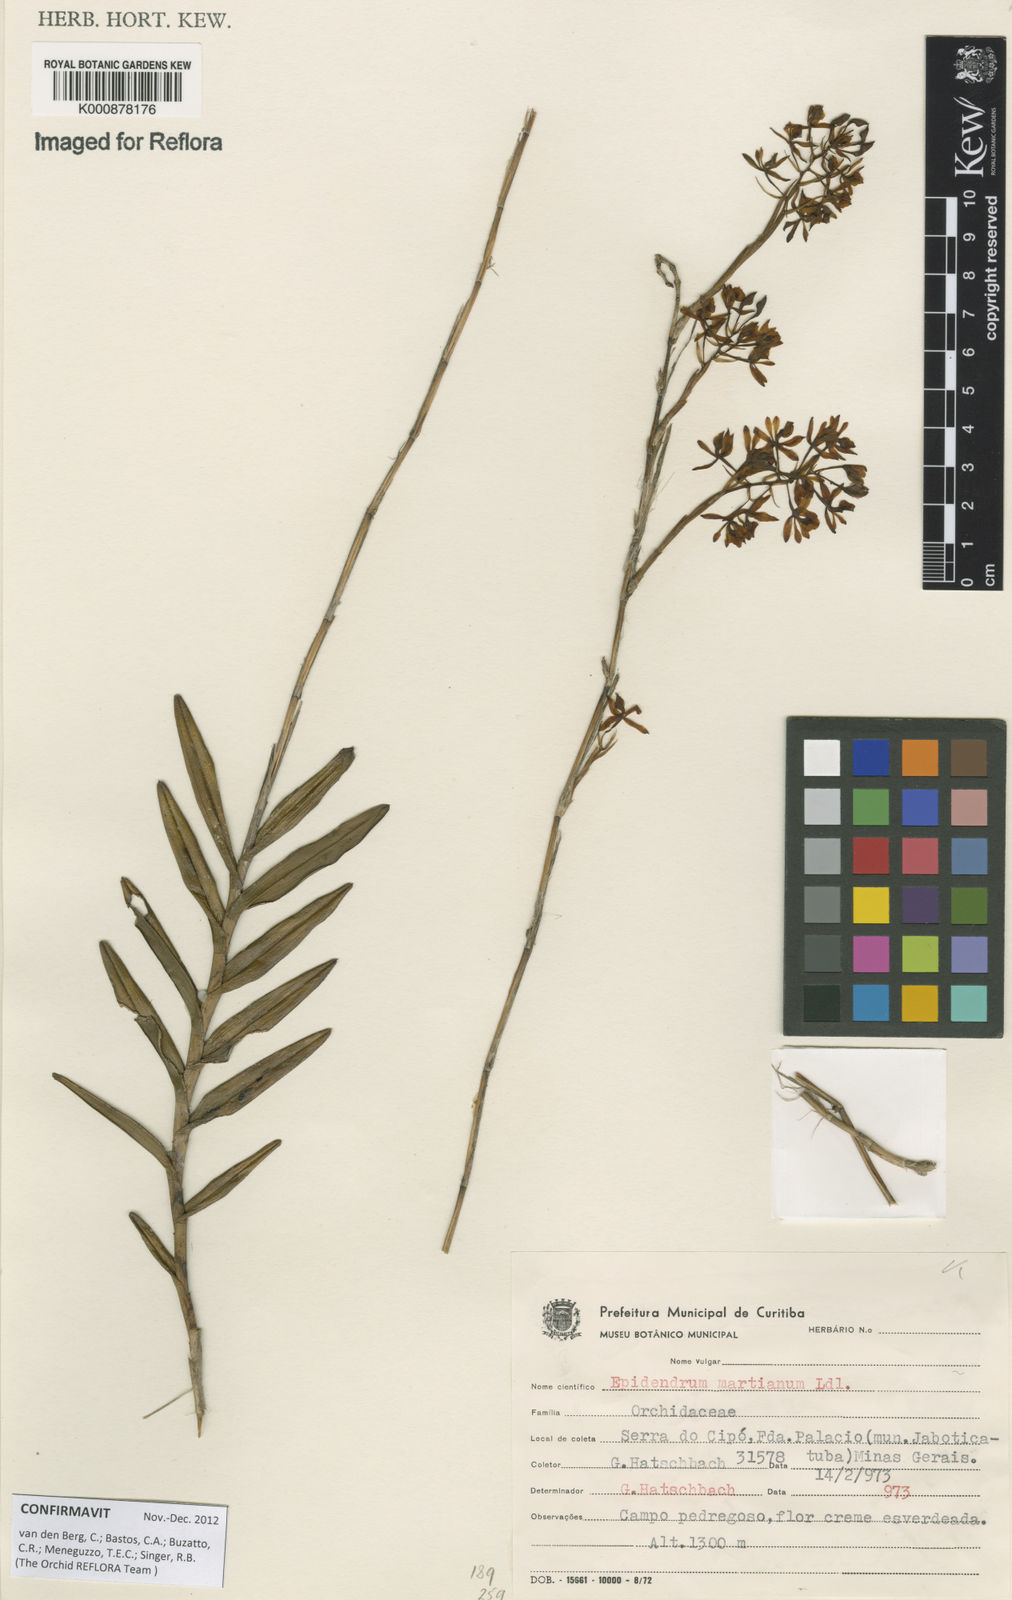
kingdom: Plantae
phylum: Tracheophyta
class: Liliopsida
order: Asparagales
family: Orchidaceae
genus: Epidendrum
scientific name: Epidendrum martianum
